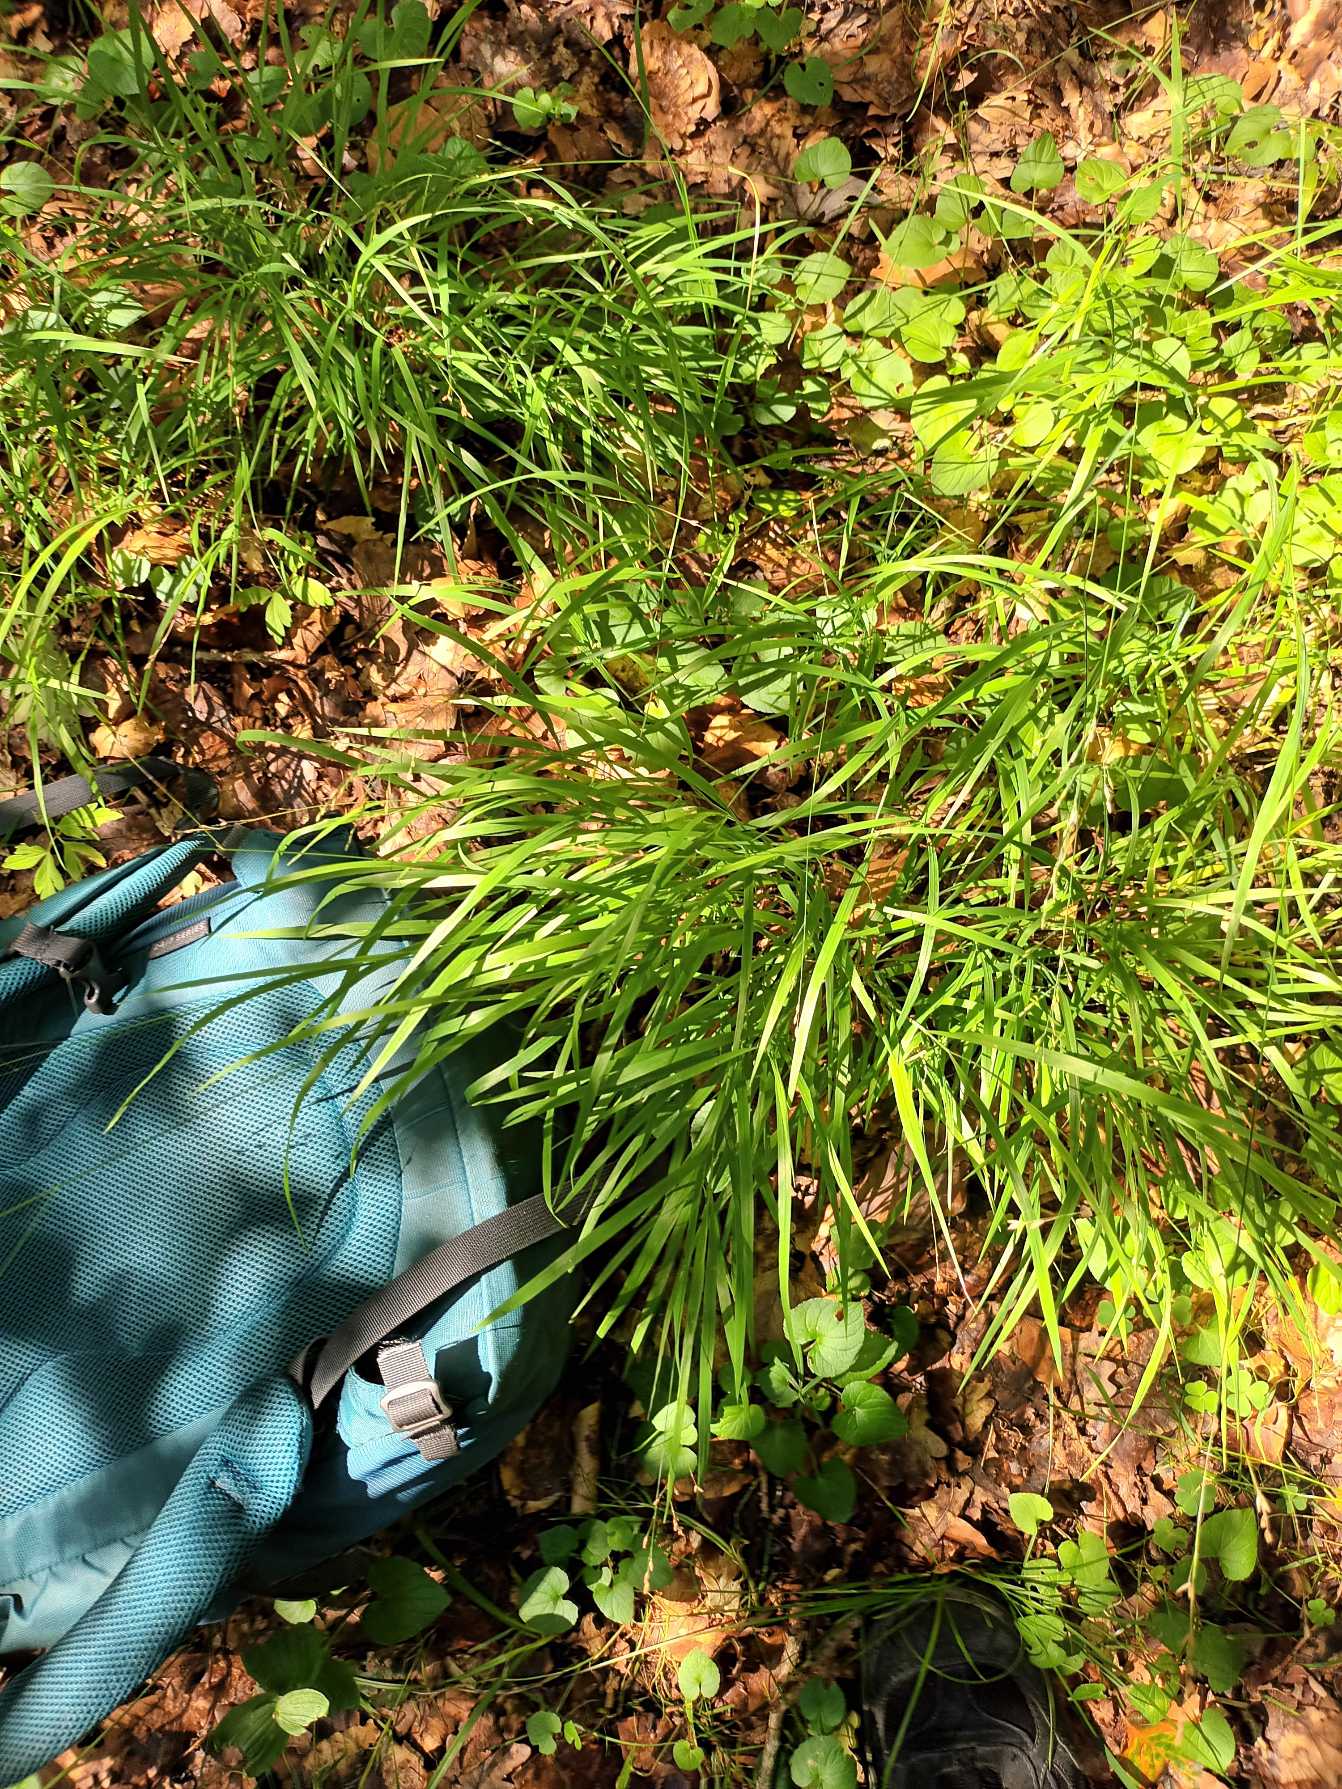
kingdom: Plantae
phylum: Tracheophyta
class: Liliopsida
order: Poales
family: Poaceae
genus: Melica
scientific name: Melica uniflora
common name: Enblomstret flitteraks
